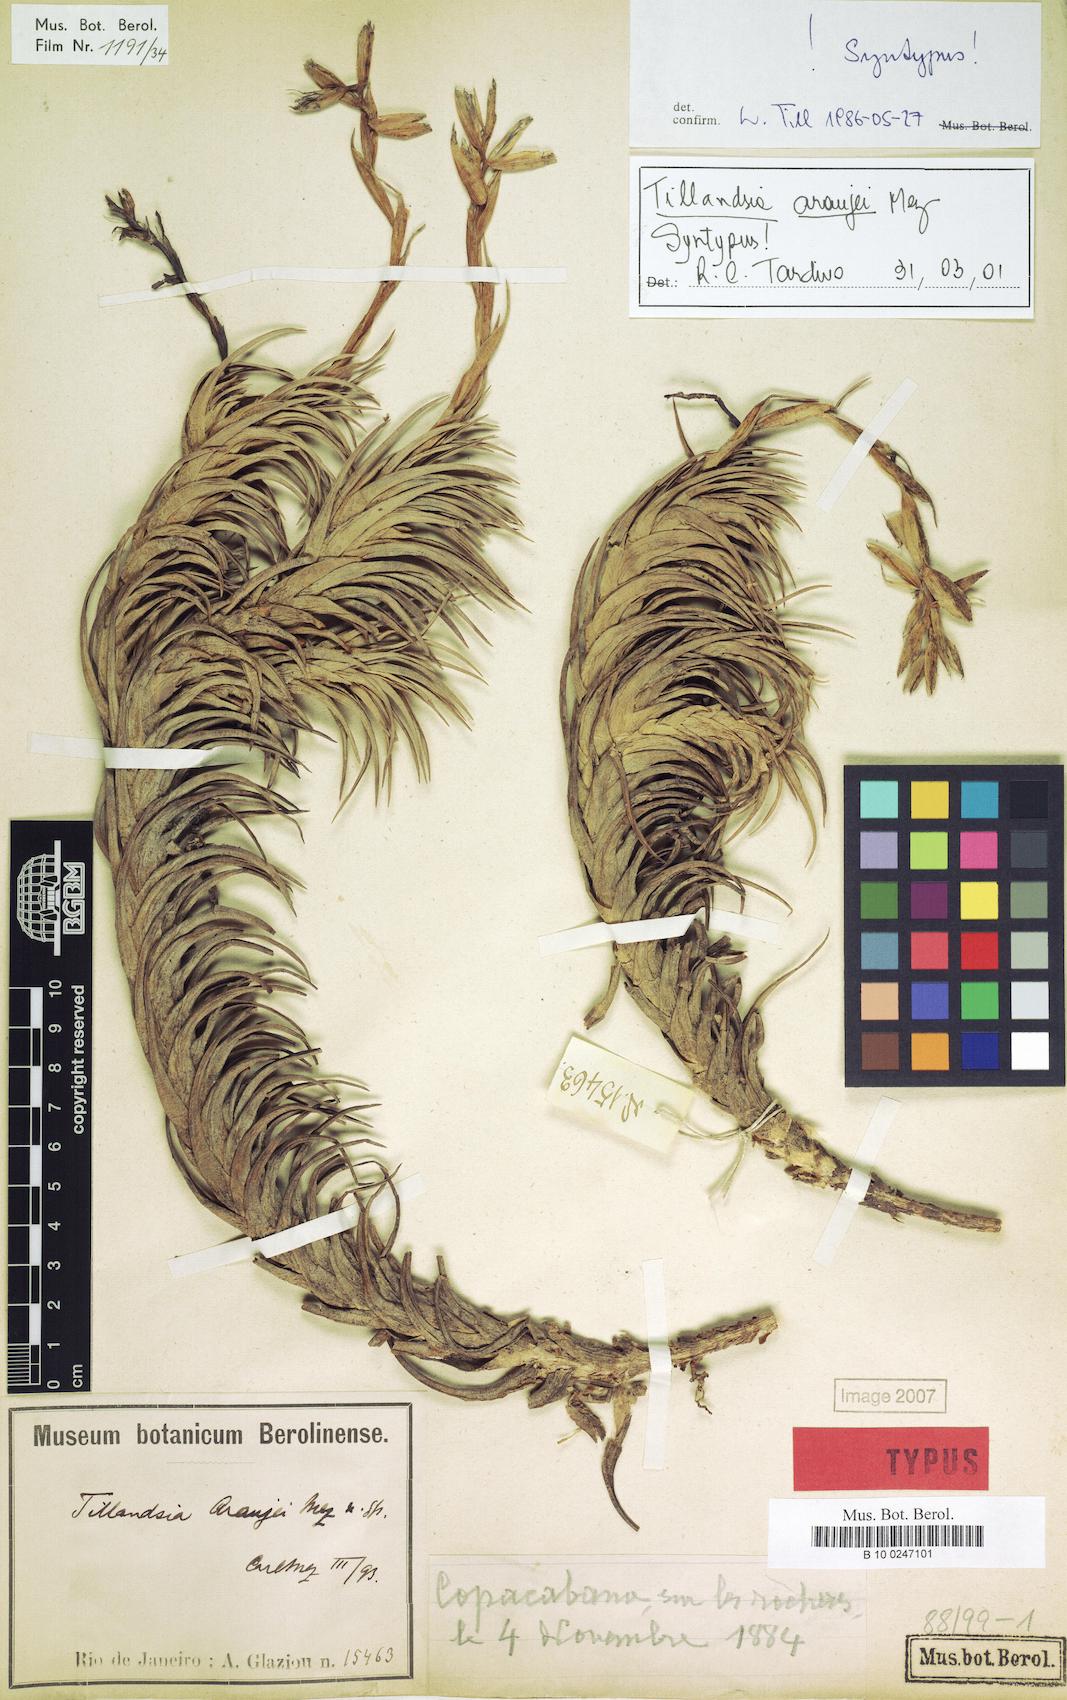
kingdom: Plantae
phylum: Tracheophyta
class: Liliopsida
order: Poales
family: Bromeliaceae
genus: Tillandsia
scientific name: Tillandsia araujei
